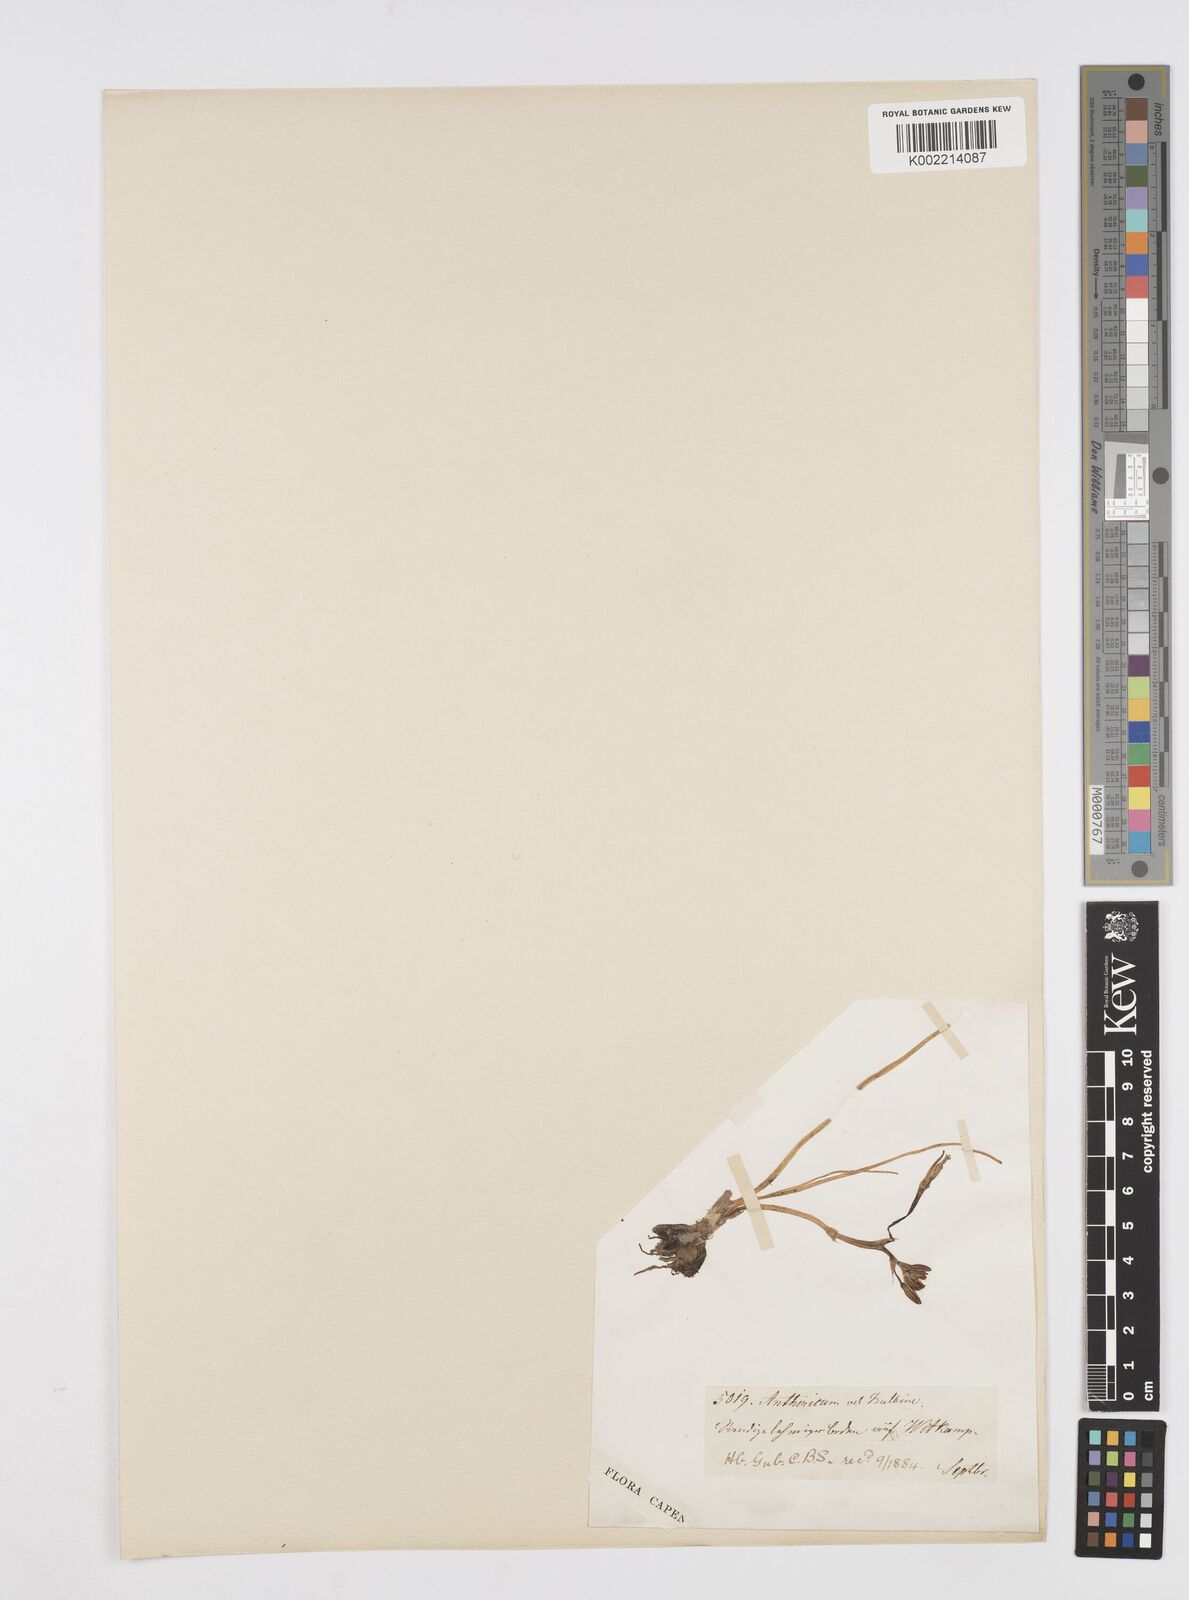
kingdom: Plantae
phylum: Tracheophyta
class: Liliopsida
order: Asparagales
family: Asphodelaceae
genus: Trachyandra
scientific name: Trachyandra
